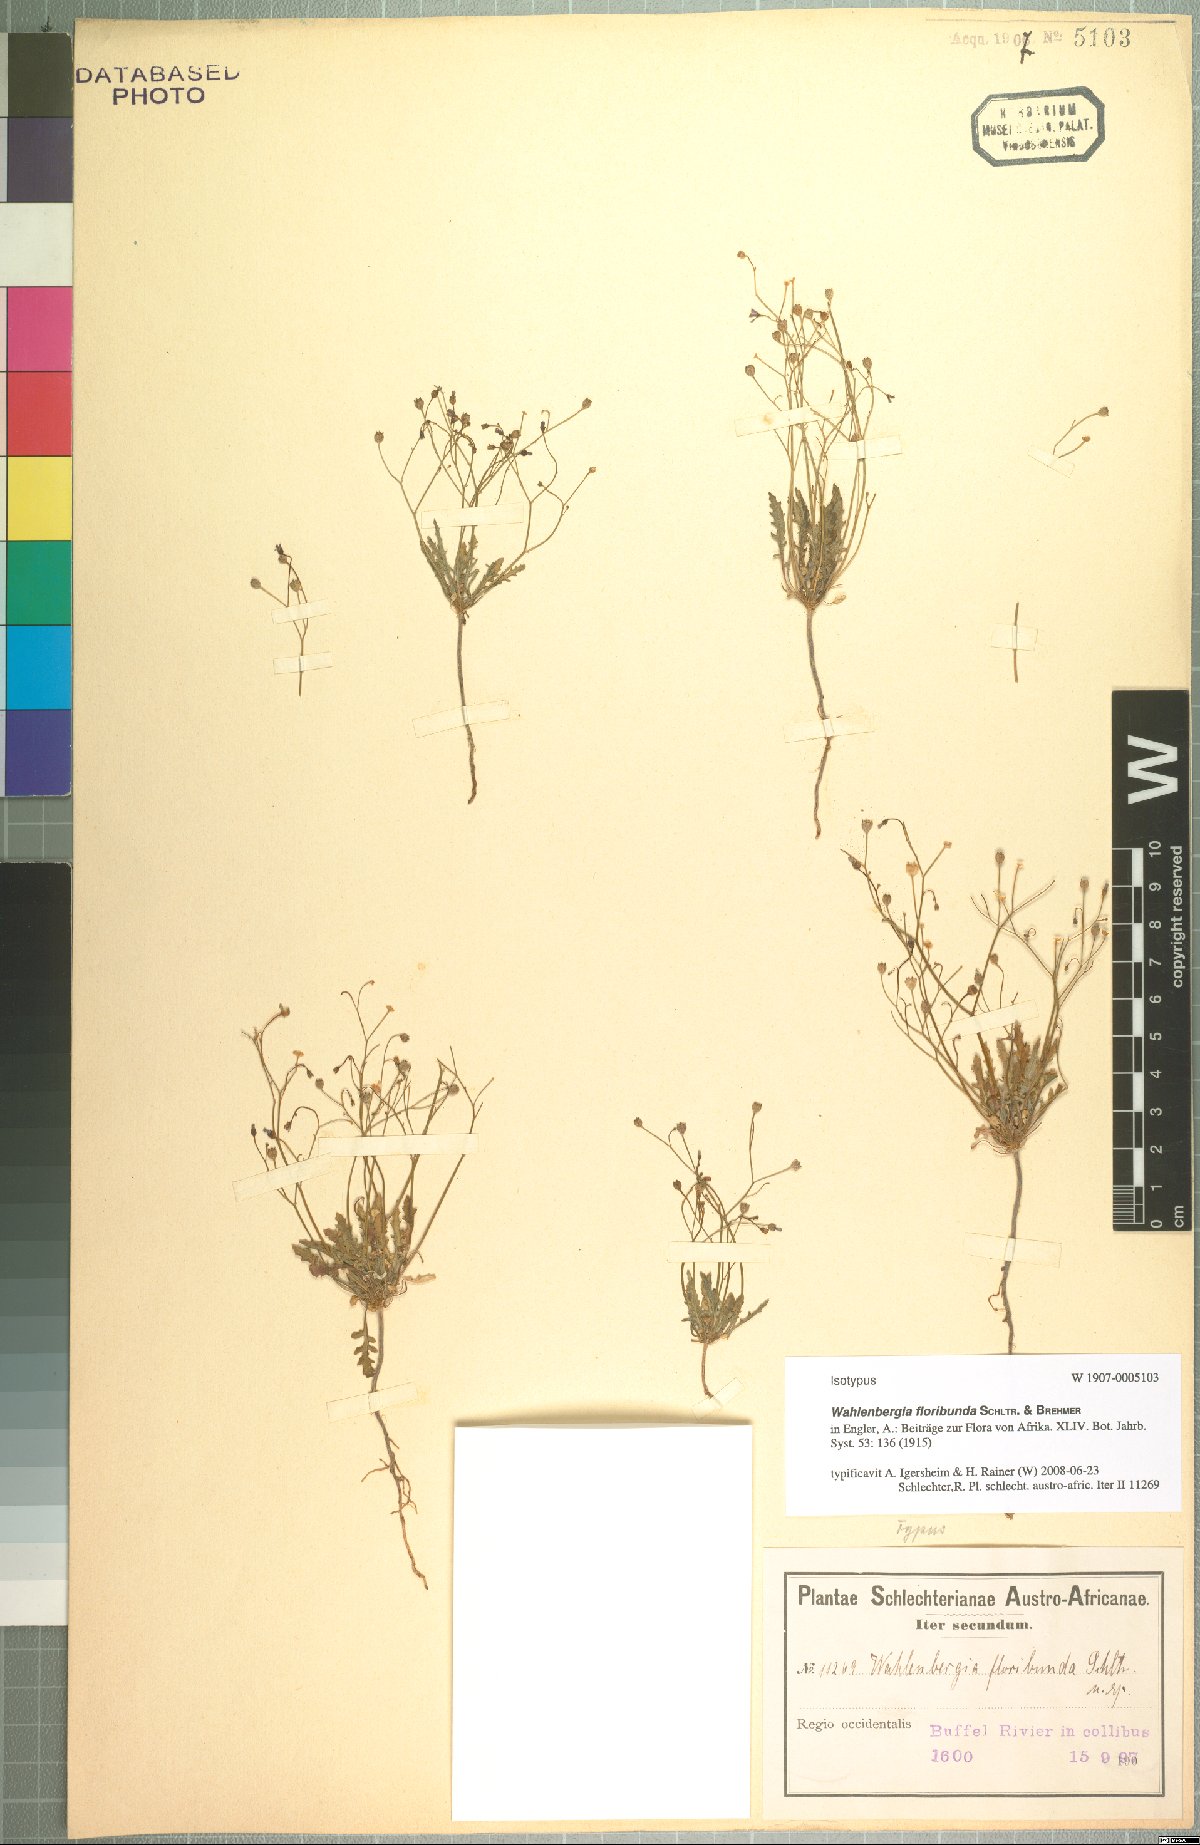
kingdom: Plantae
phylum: Tracheophyta
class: Magnoliopsida
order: Asterales
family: Campanulaceae
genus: Wahlenbergia
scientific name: Wahlenbergia floribunda
